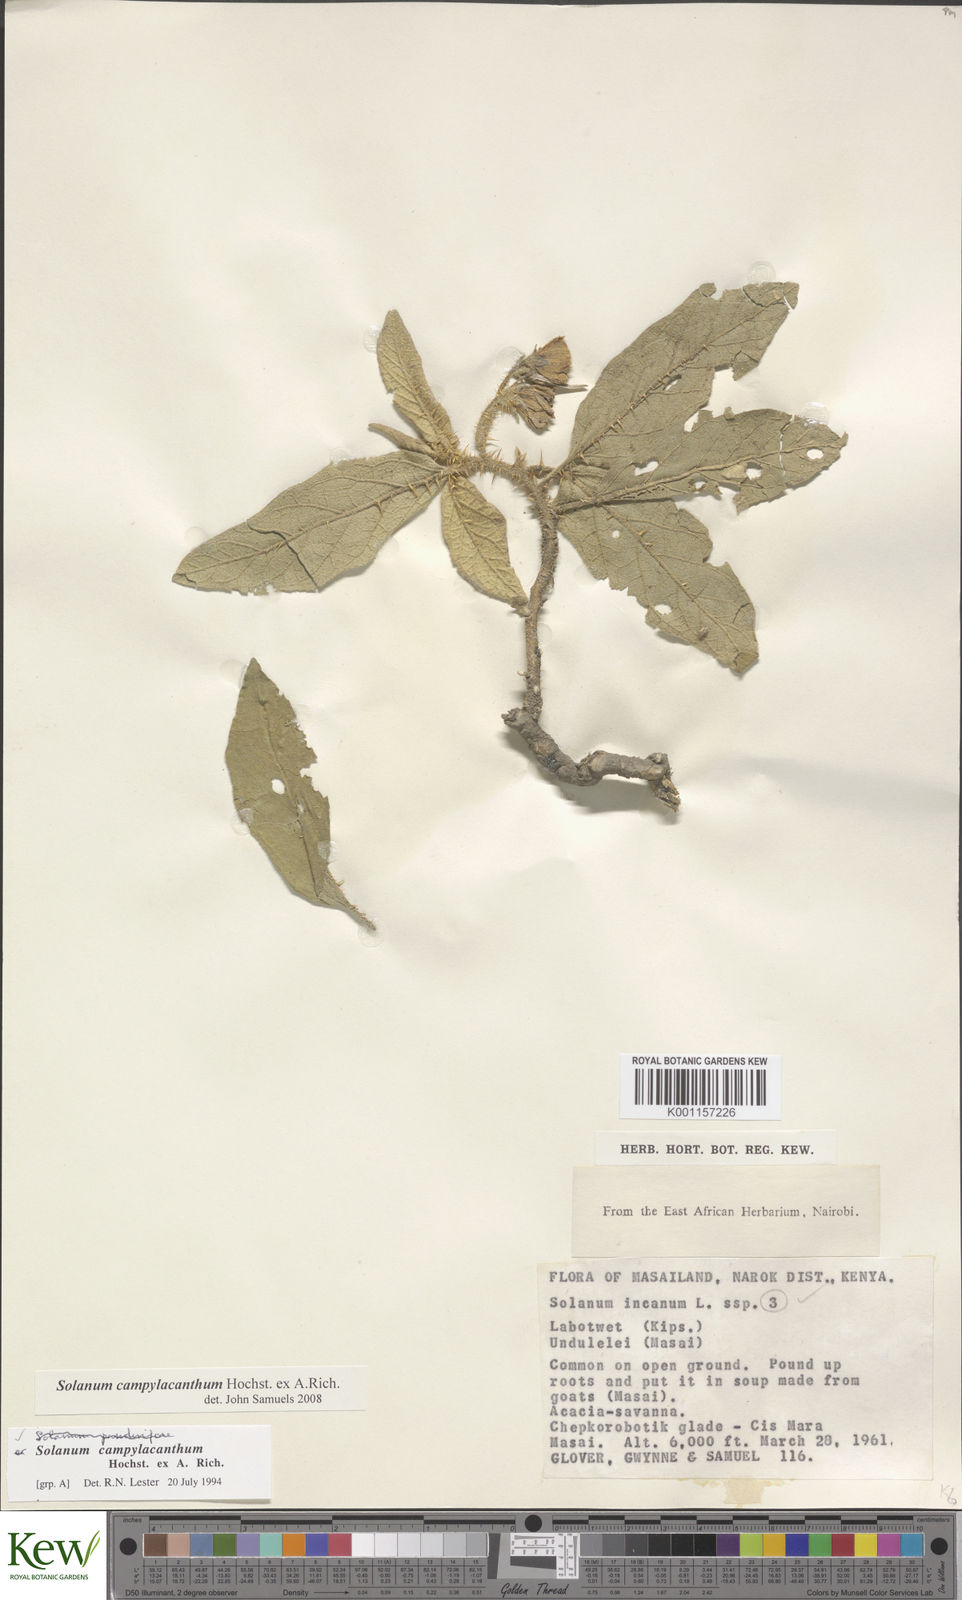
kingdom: Plantae
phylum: Tracheophyta
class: Magnoliopsida
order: Solanales
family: Solanaceae
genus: Solanum
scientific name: Solanum campylacanthum
